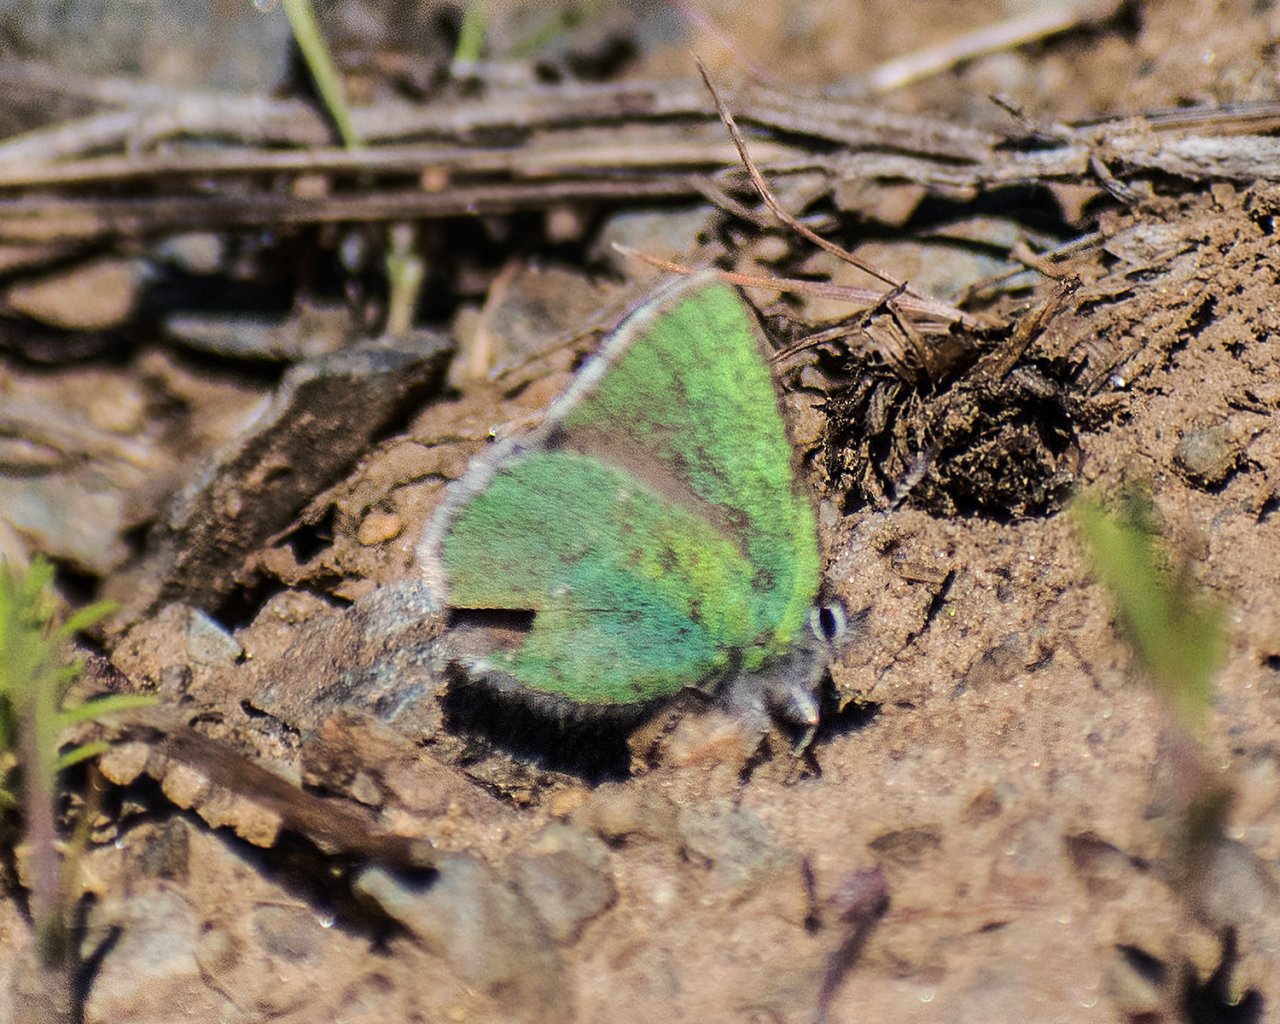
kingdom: Animalia
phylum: Arthropoda
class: Insecta
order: Lepidoptera
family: Lycaenidae
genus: Thecla
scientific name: Thecla sheridanii
